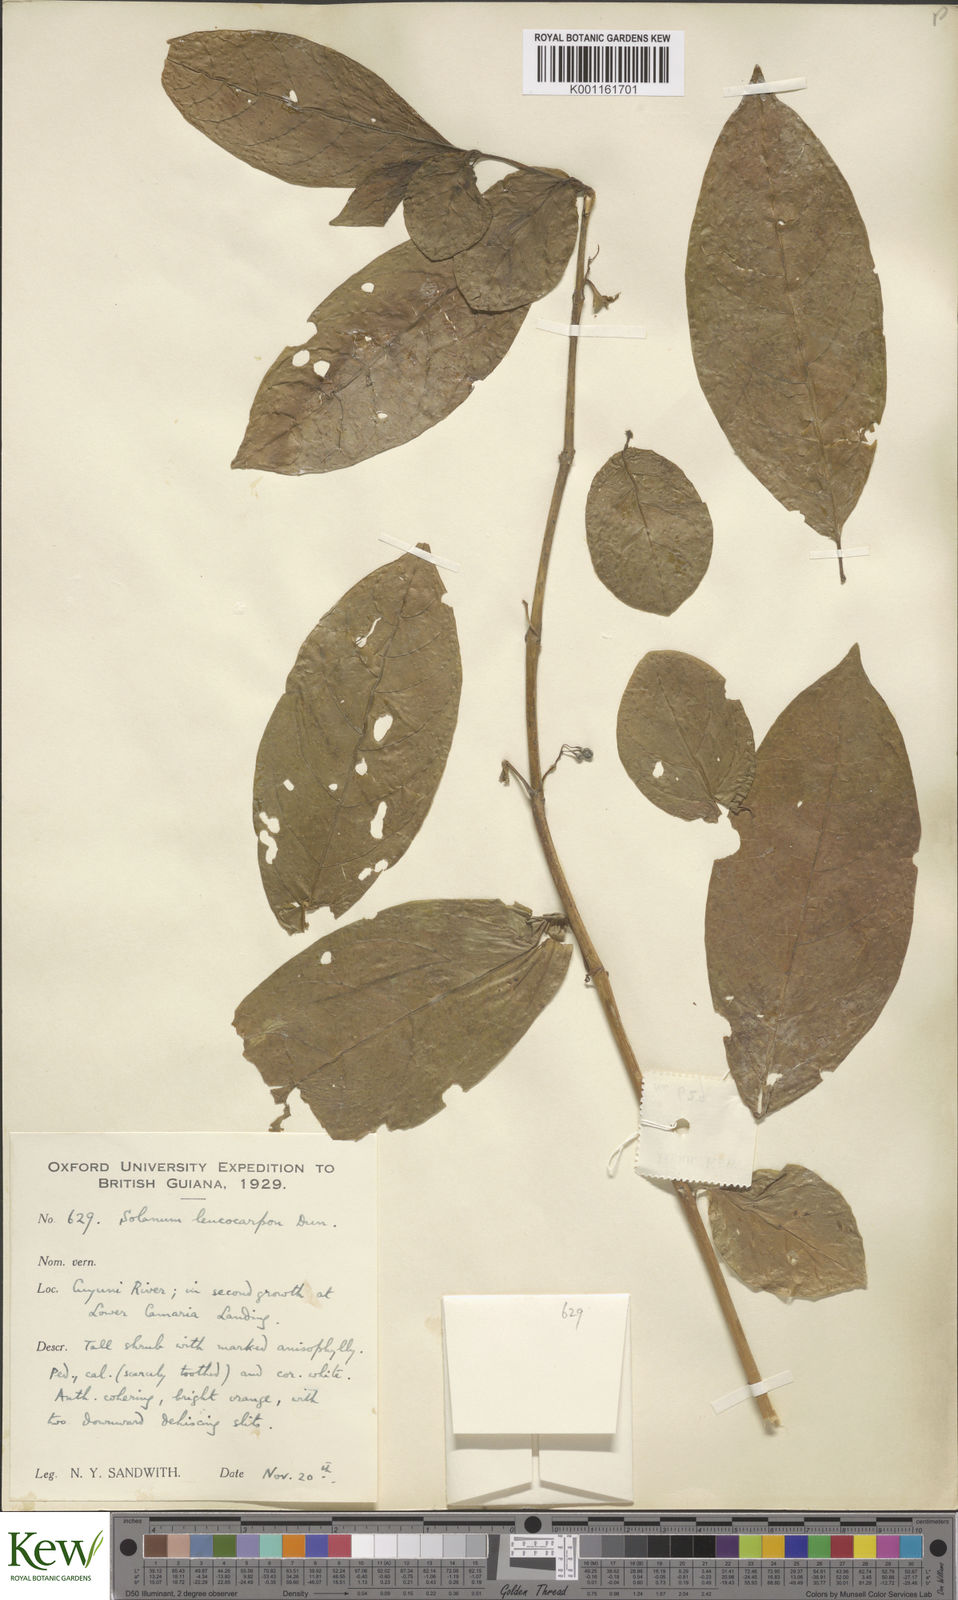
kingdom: Plantae
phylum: Tracheophyta
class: Magnoliopsida
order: Solanales
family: Solanaceae
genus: Solanum
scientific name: Solanum leucocarpon
